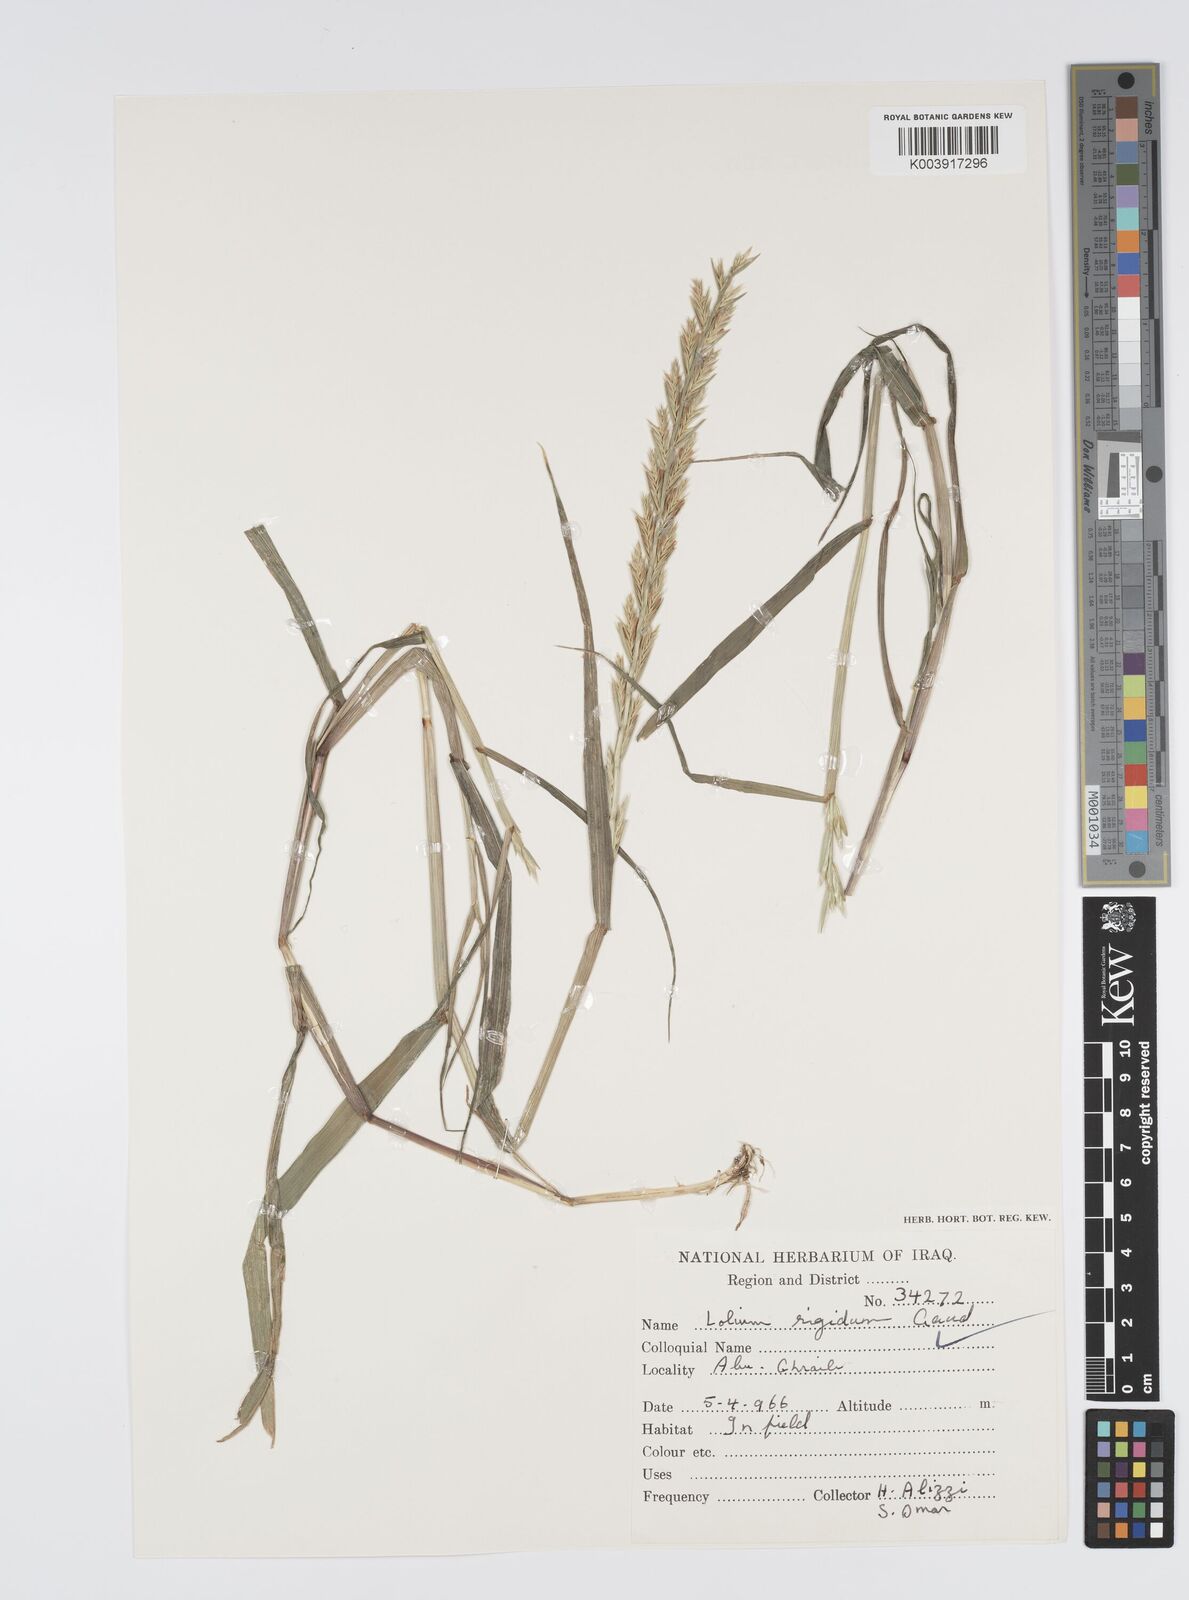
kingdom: Plantae
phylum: Tracheophyta
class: Liliopsida
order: Poales
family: Poaceae
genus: Lolium
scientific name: Lolium rigidum
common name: Wimmera ryegrass
